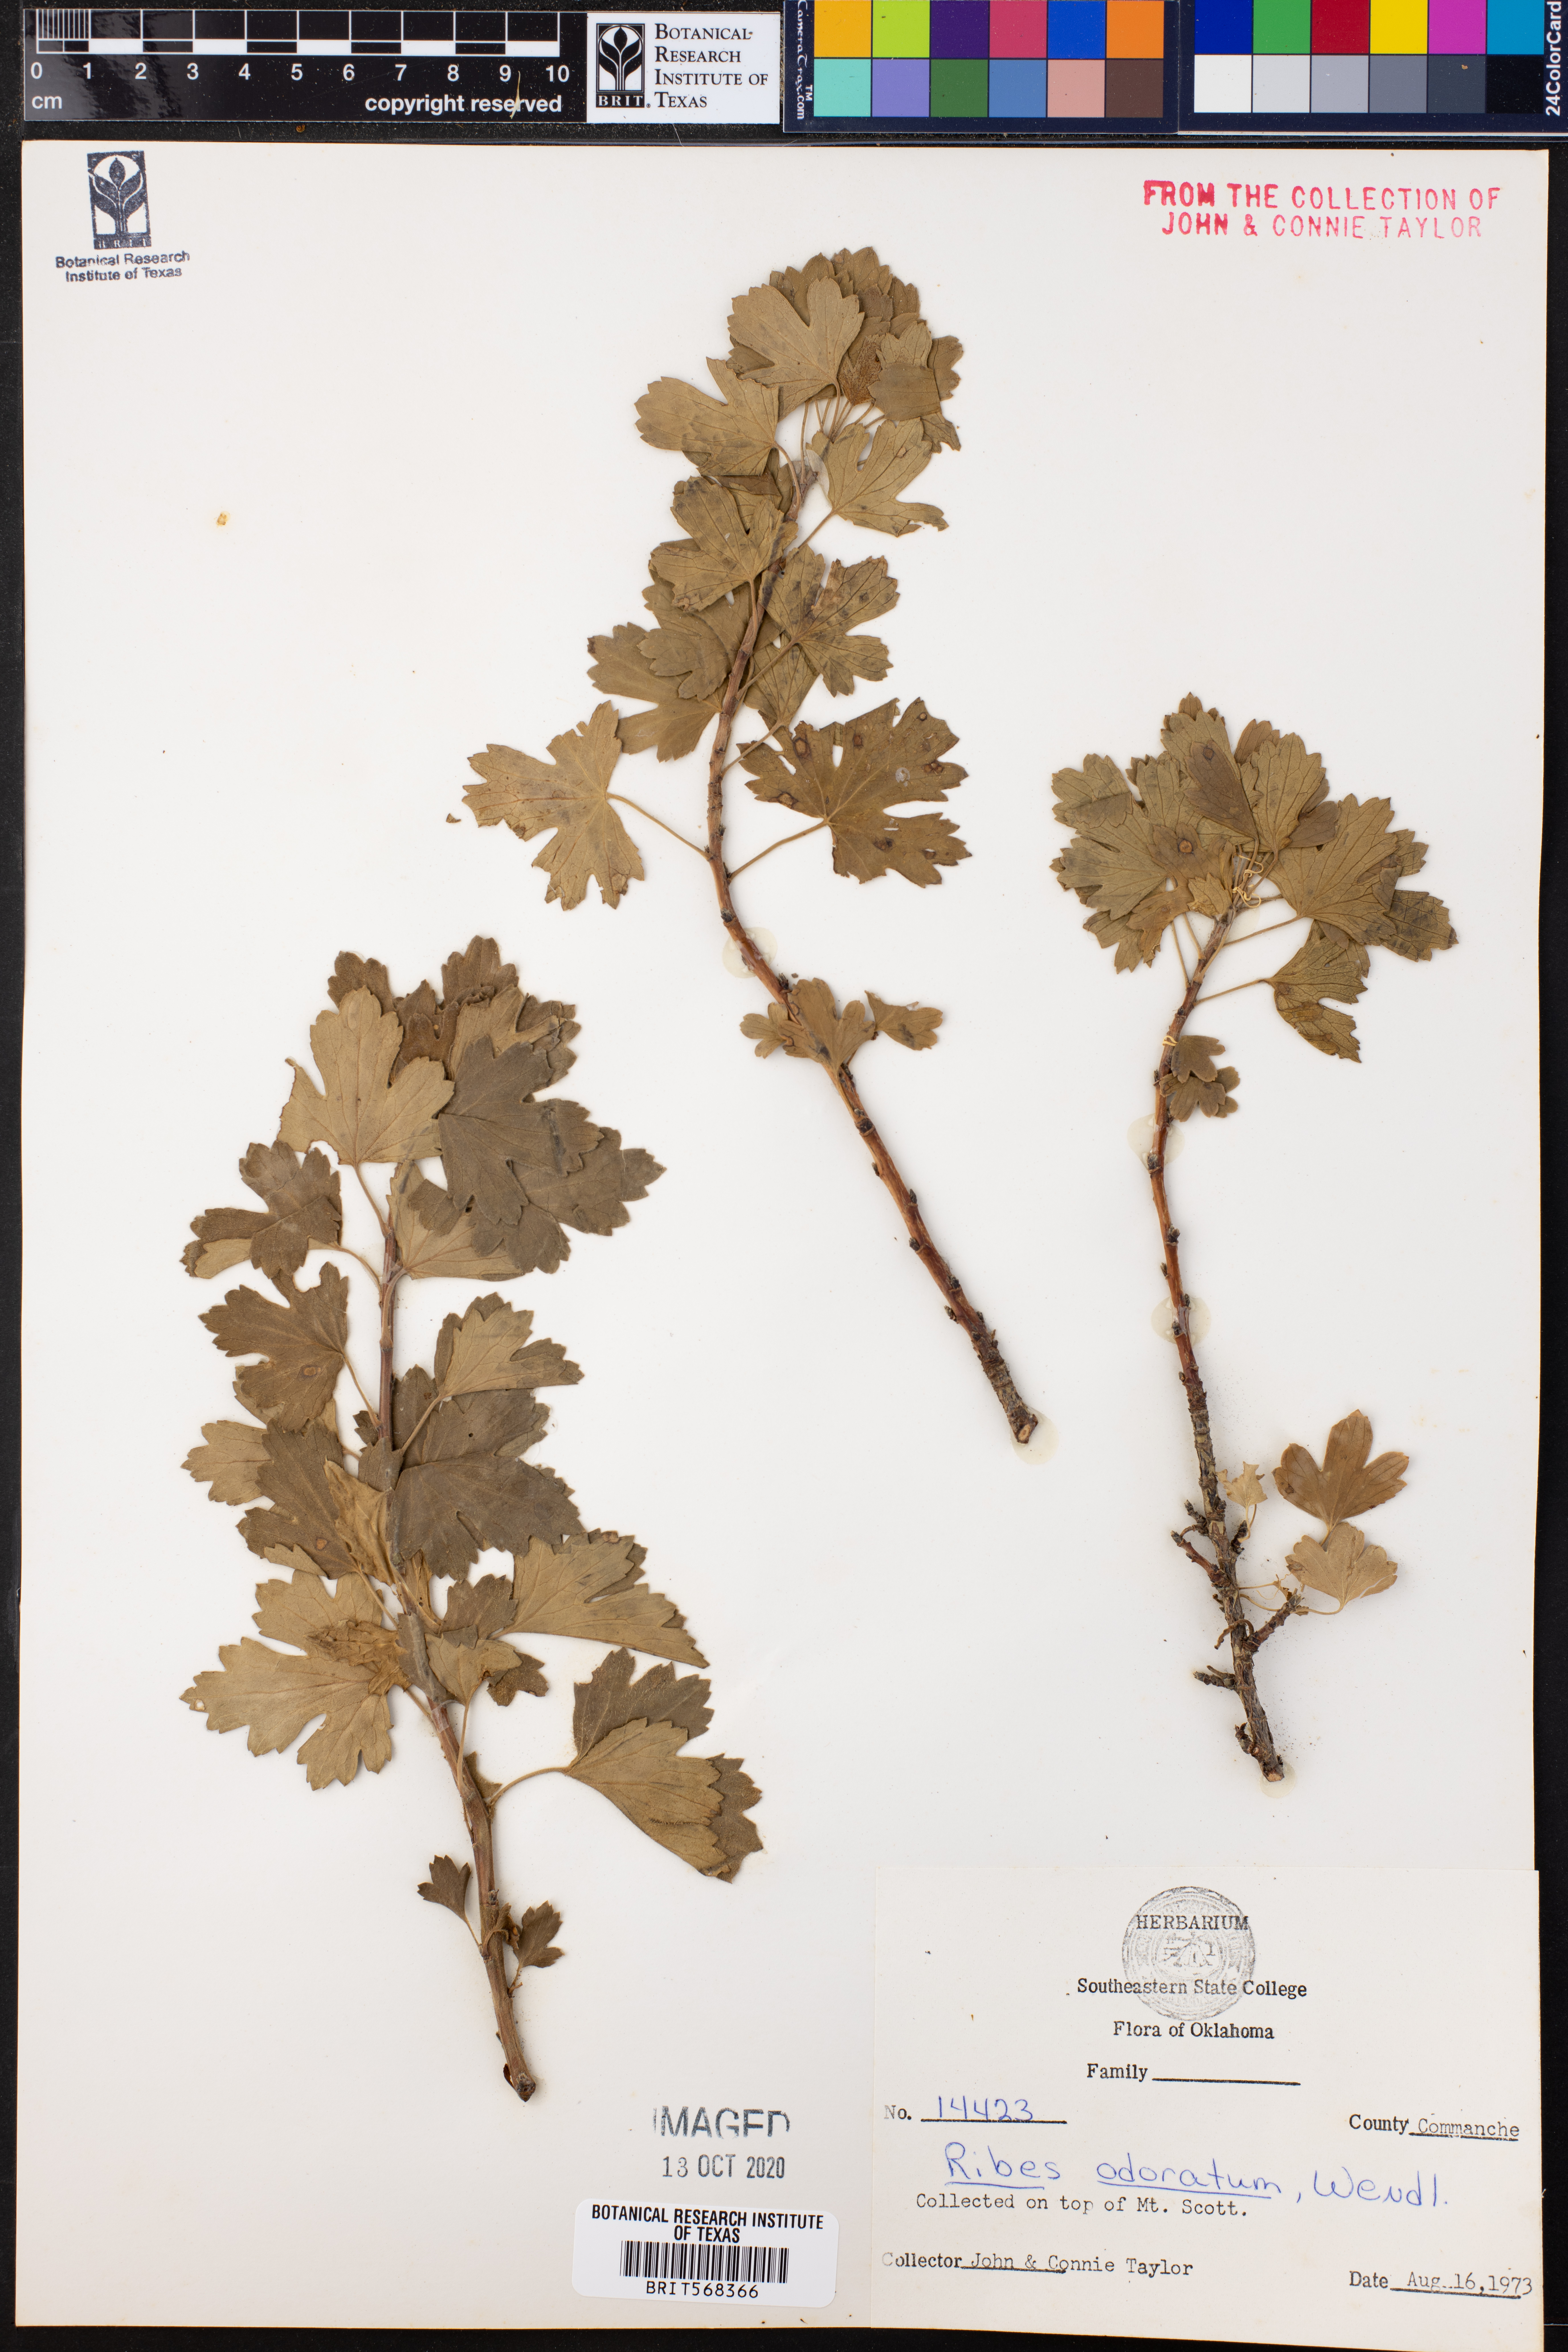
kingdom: Plantae
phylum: Tracheophyta
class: Magnoliopsida
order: Saxifragales
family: Grossulariaceae
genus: Ribes
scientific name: Ribes aureum
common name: Golden currant
